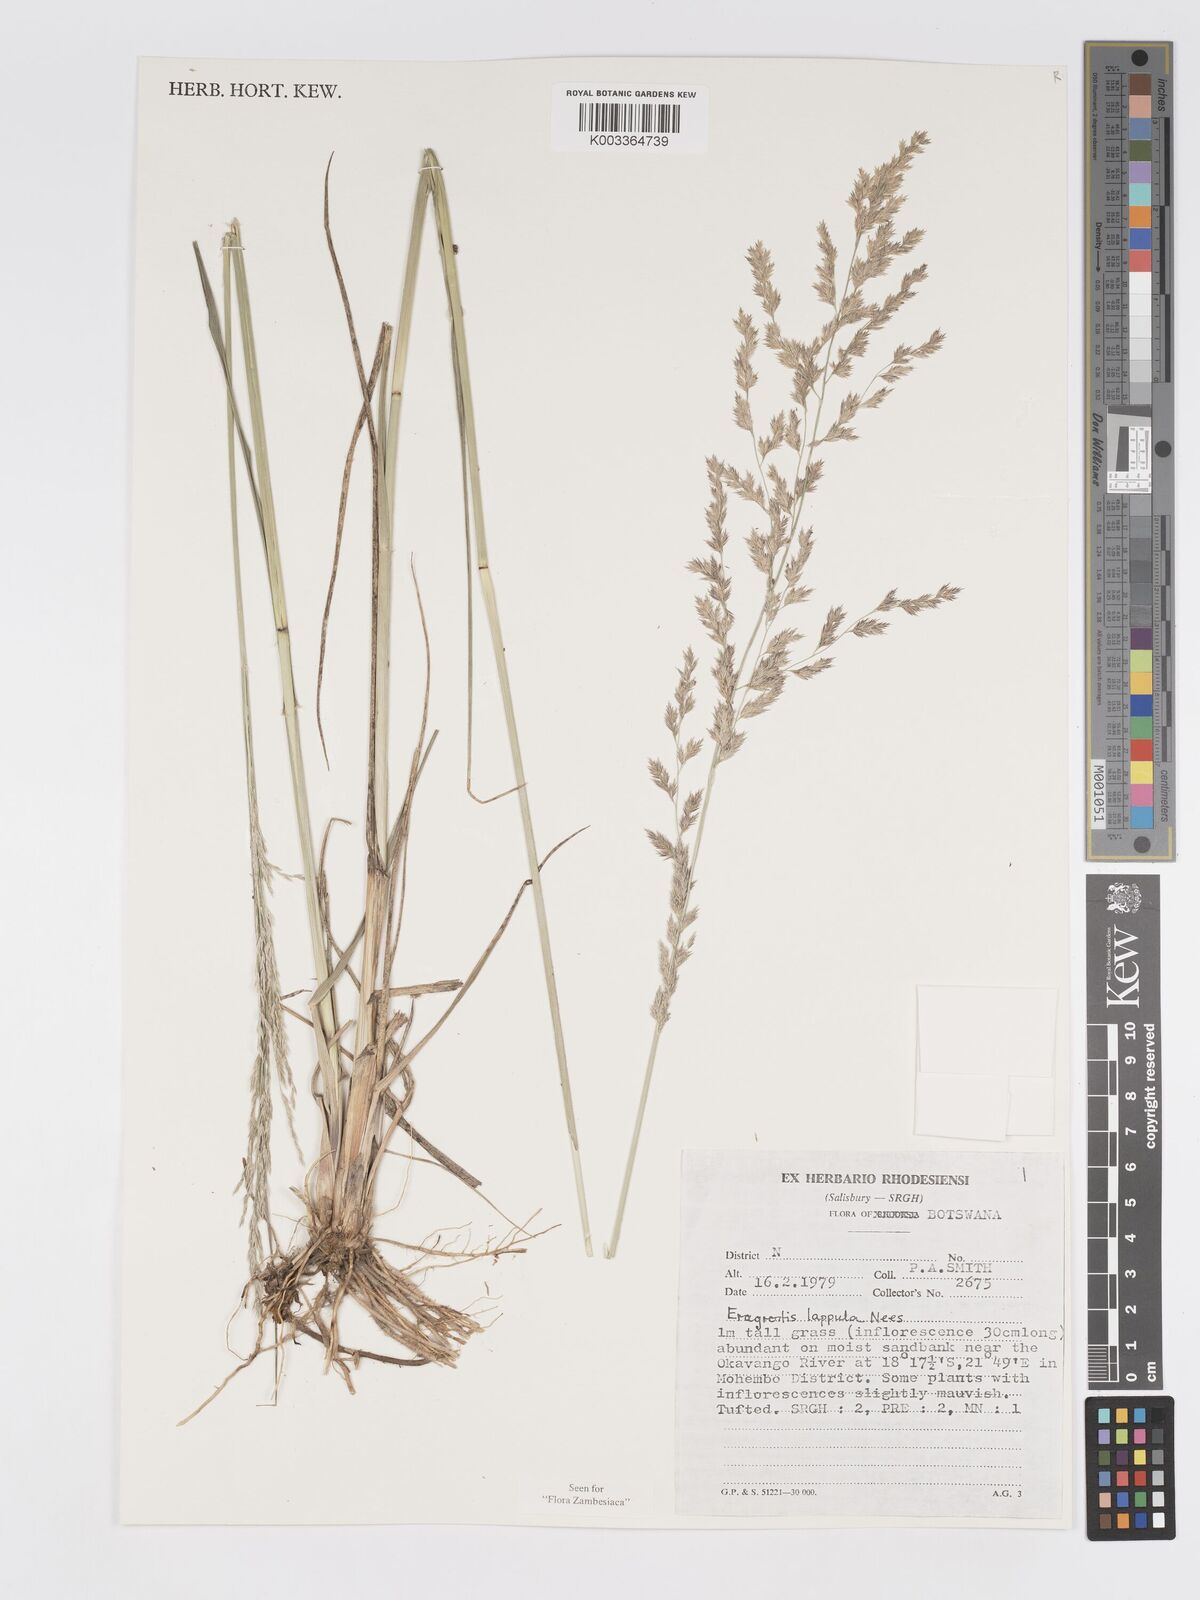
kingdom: Plantae
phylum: Tracheophyta
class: Liliopsida
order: Poales
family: Poaceae
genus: Eragrostis
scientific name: Eragrostis lappula
